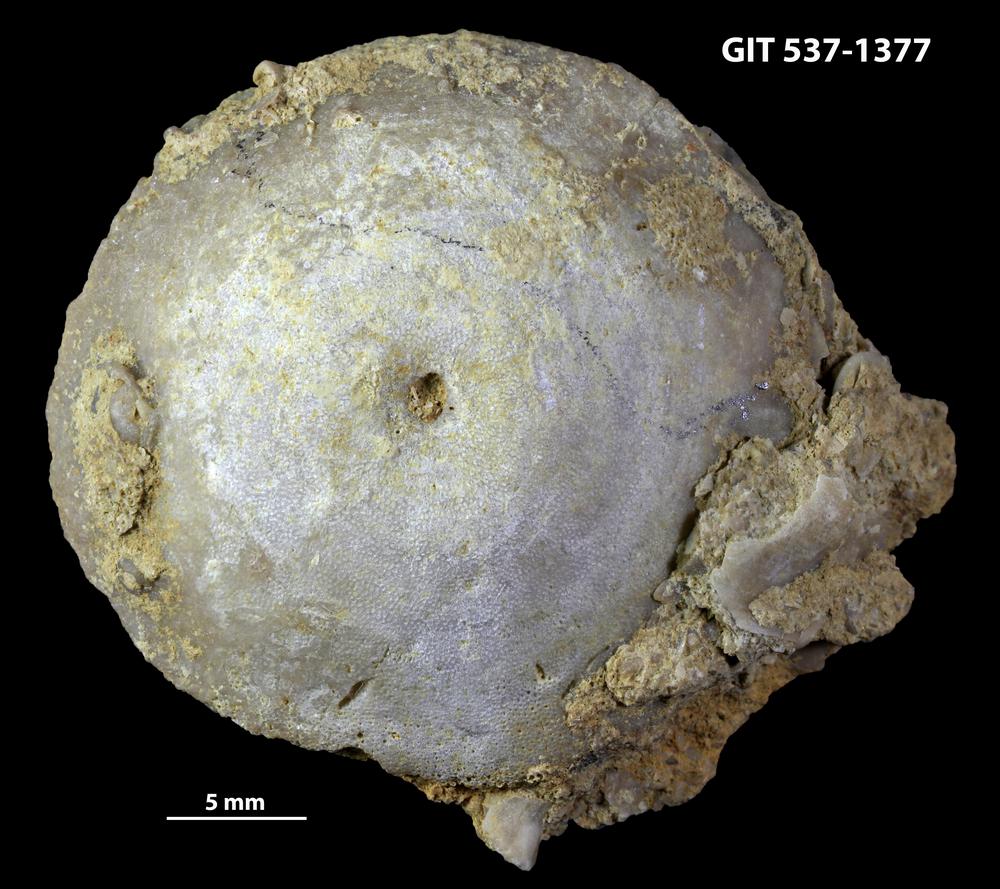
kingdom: Animalia
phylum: Bryozoa
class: Stenolaemata
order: Trepostomatida
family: Diplotrypidae
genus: Diplotrypa
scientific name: Diplotrypa bicornis
